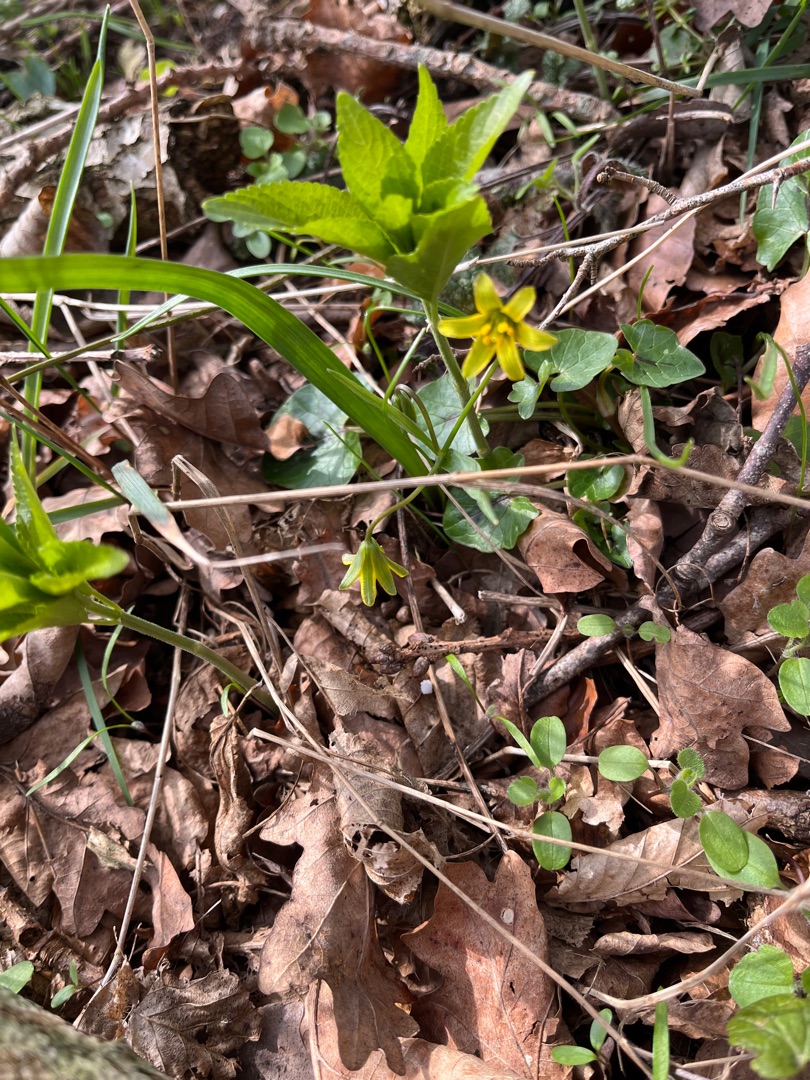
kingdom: Plantae
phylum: Tracheophyta
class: Liliopsida
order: Liliales
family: Liliaceae
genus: Gagea
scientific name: Gagea lutea
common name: Almindelig guldstjerne
